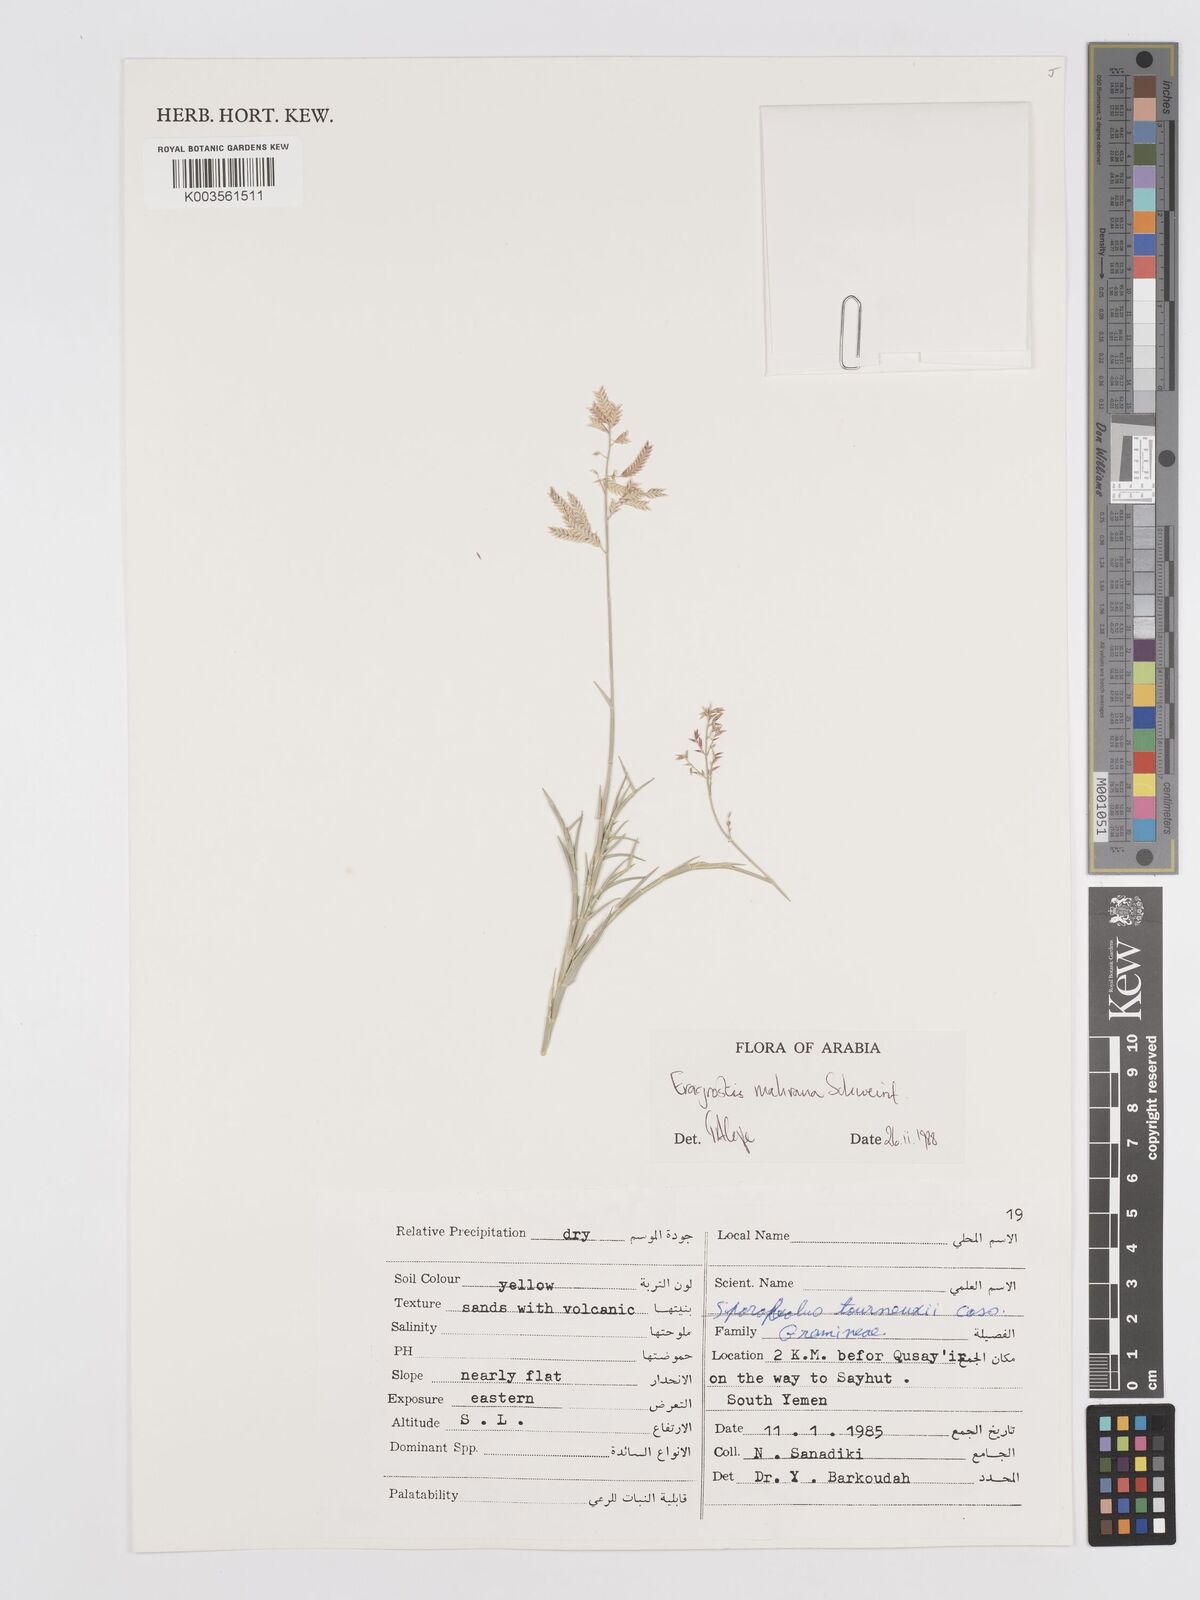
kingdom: Plantae
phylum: Tracheophyta
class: Liliopsida
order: Poales
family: Poaceae
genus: Eragrostis
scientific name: Eragrostis mahrana
